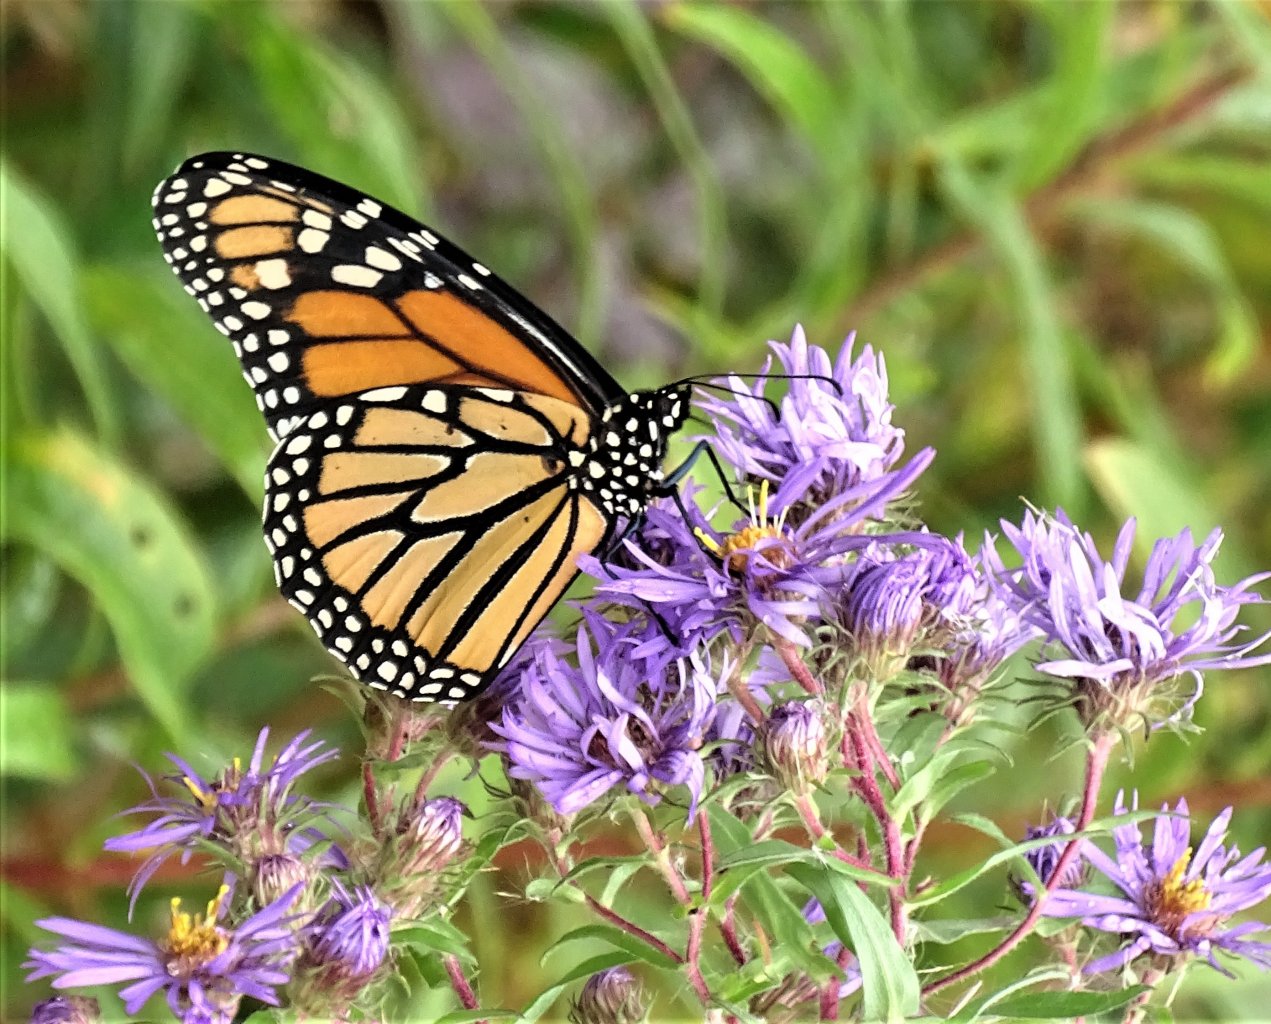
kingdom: Animalia
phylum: Arthropoda
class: Insecta
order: Lepidoptera
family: Nymphalidae
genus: Danaus
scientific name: Danaus plexippus
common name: Monarch
